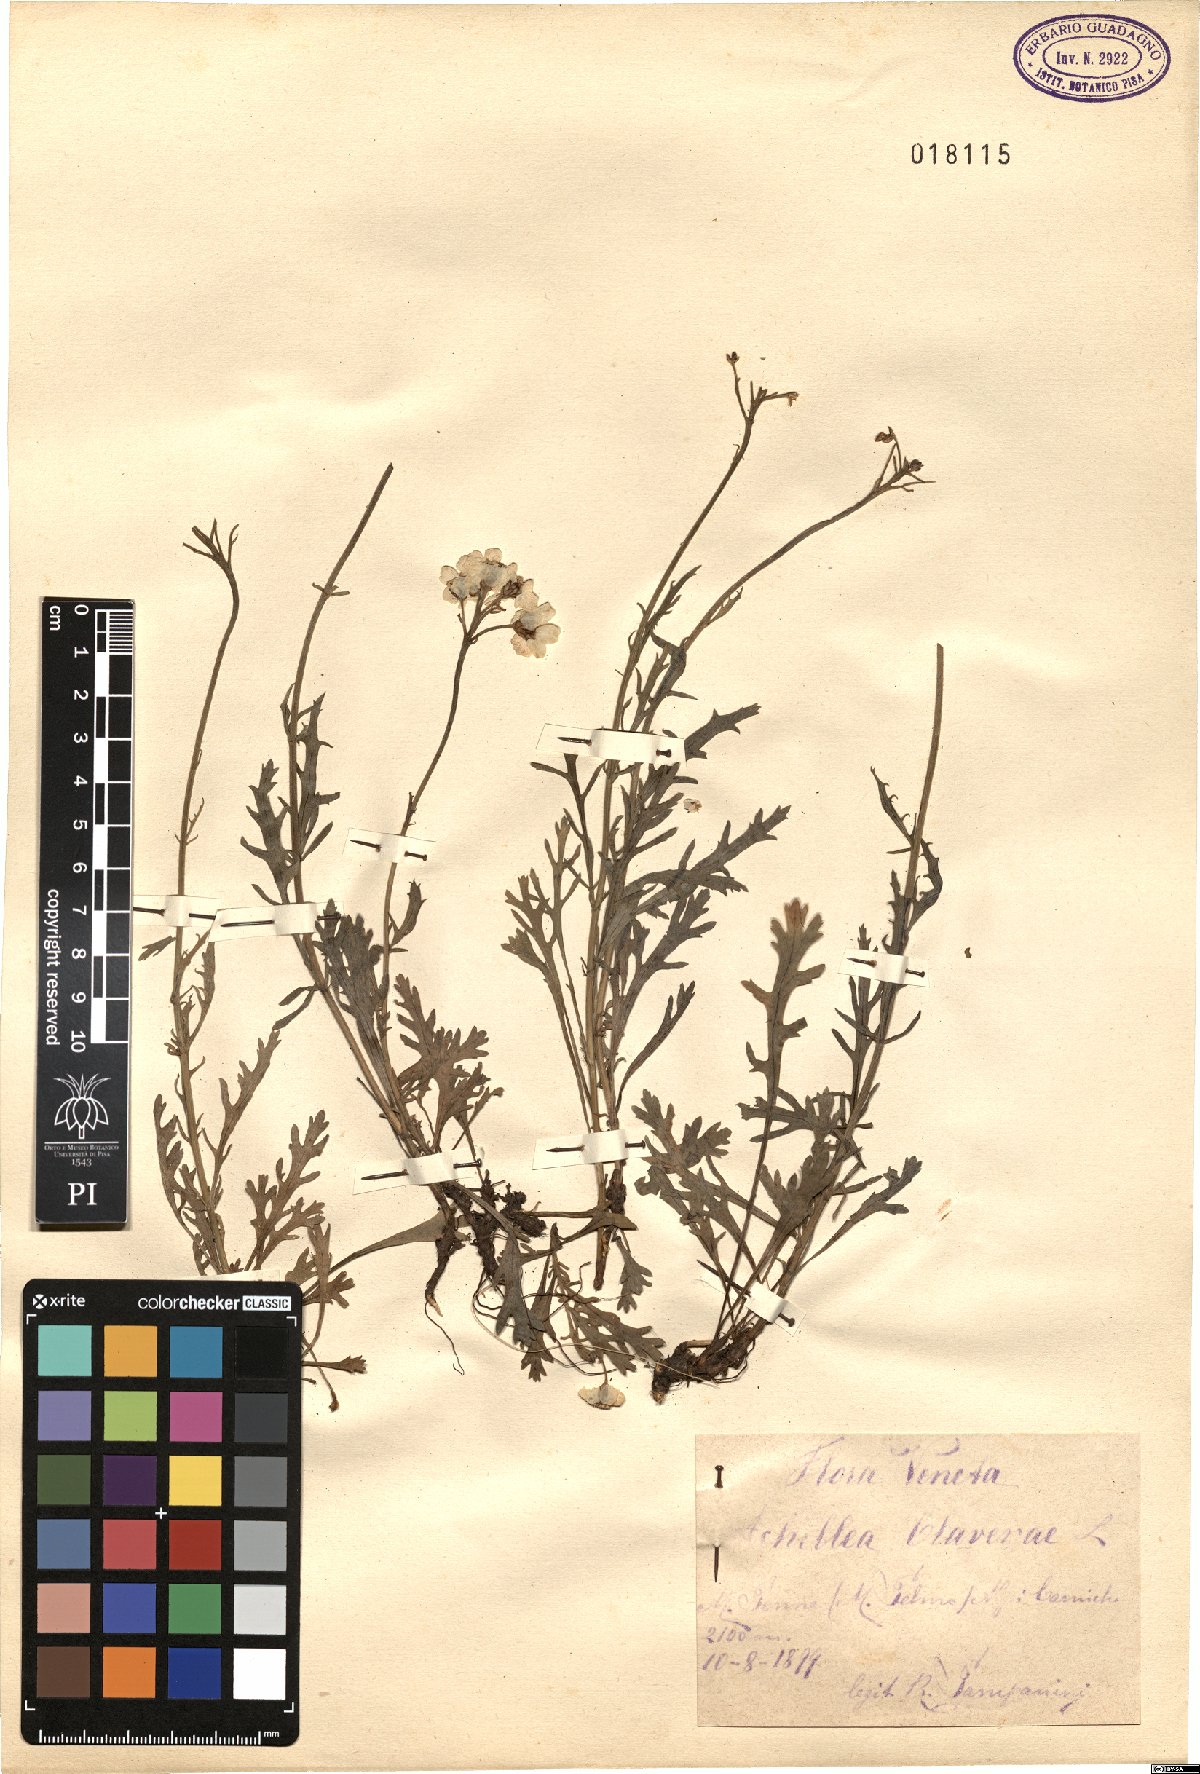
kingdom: Plantae
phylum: Tracheophyta
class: Magnoliopsida
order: Asterales
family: Asteraceae
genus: Achillea
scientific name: Achillea clavennae
